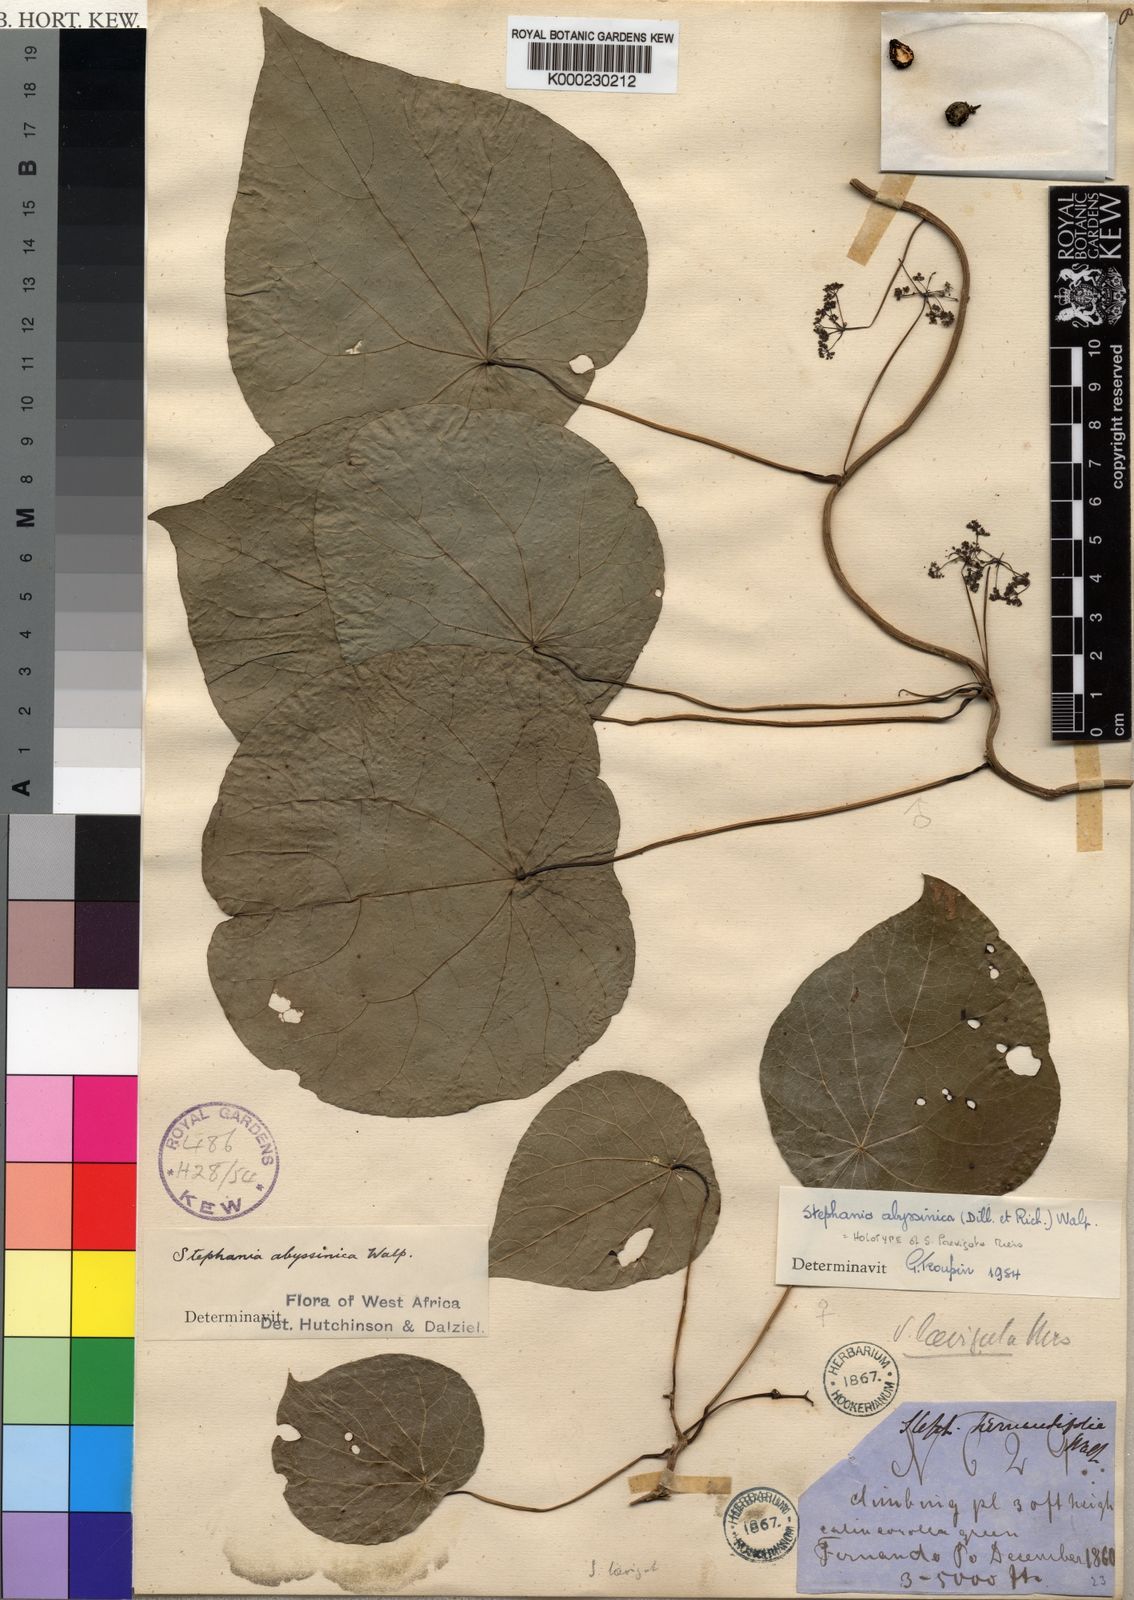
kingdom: Plantae
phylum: Tracheophyta
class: Magnoliopsida
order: Ranunculales
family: Menispermaceae
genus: Stephania
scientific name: Stephania abyssinica
